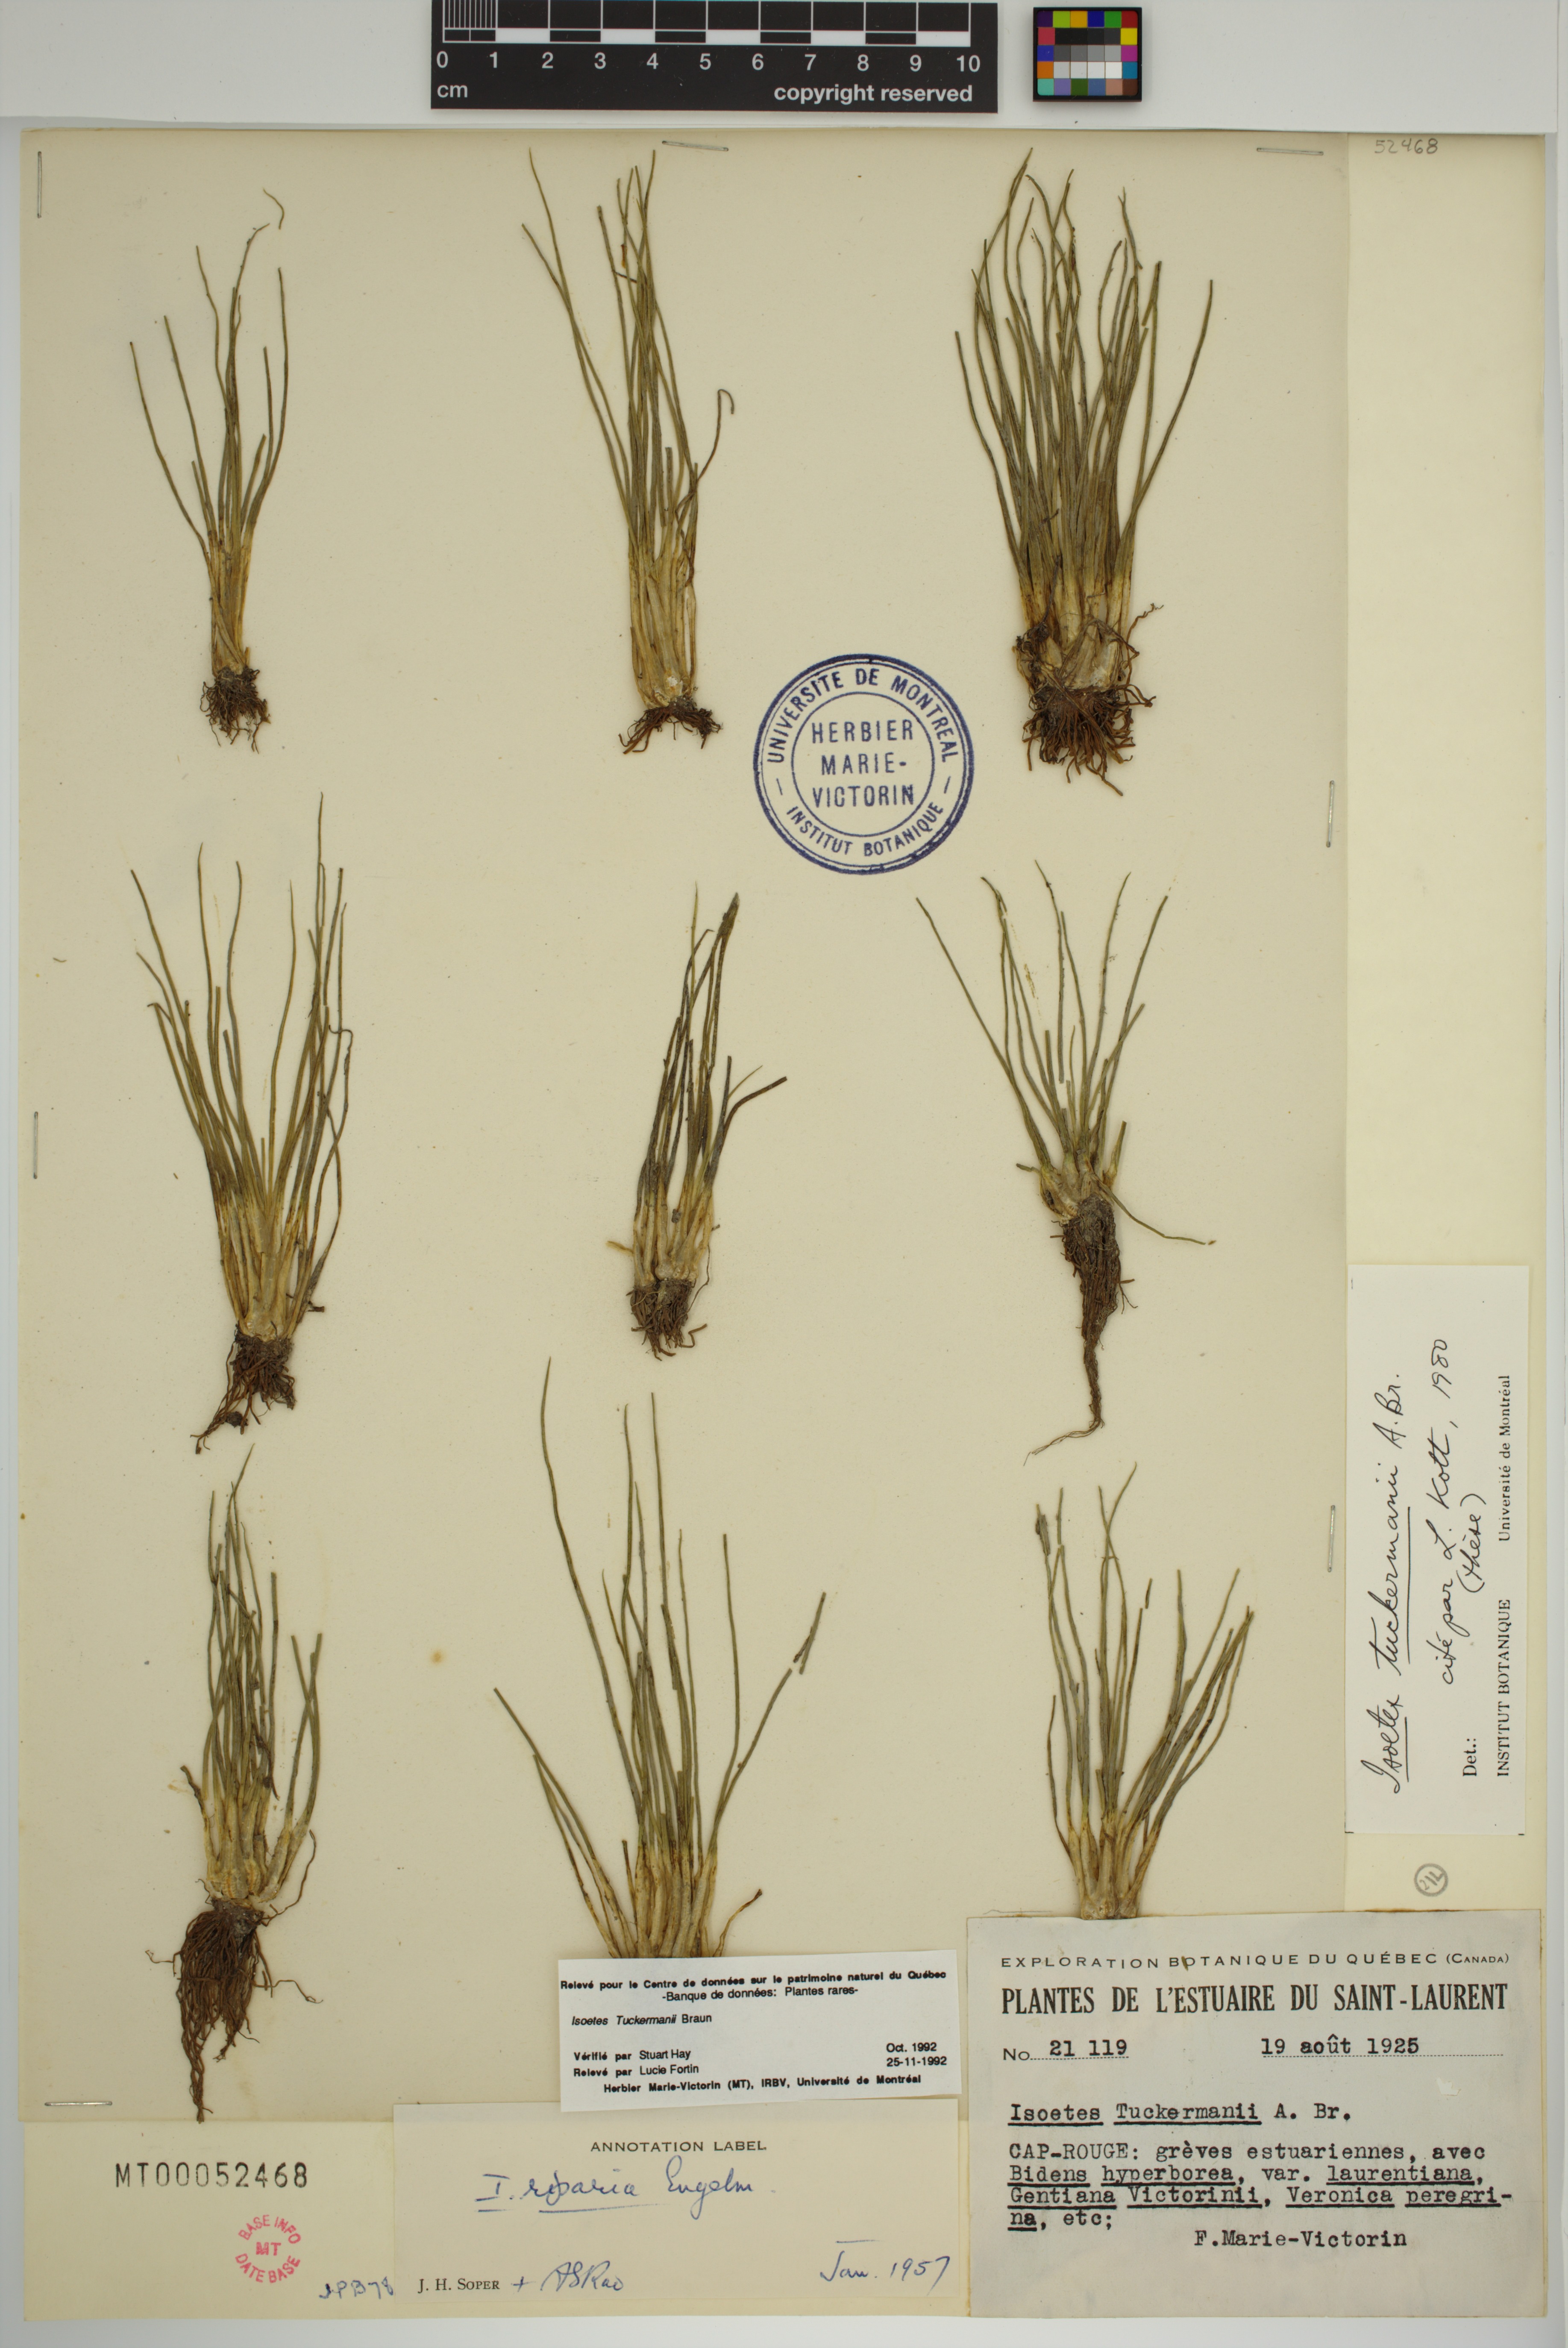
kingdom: Plantae
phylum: Tracheophyta
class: Lycopodiopsida
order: Isoetales
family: Isoetaceae
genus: Isoetes
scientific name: Isoetes tuckermanii
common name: Tuckerman's quillwort
